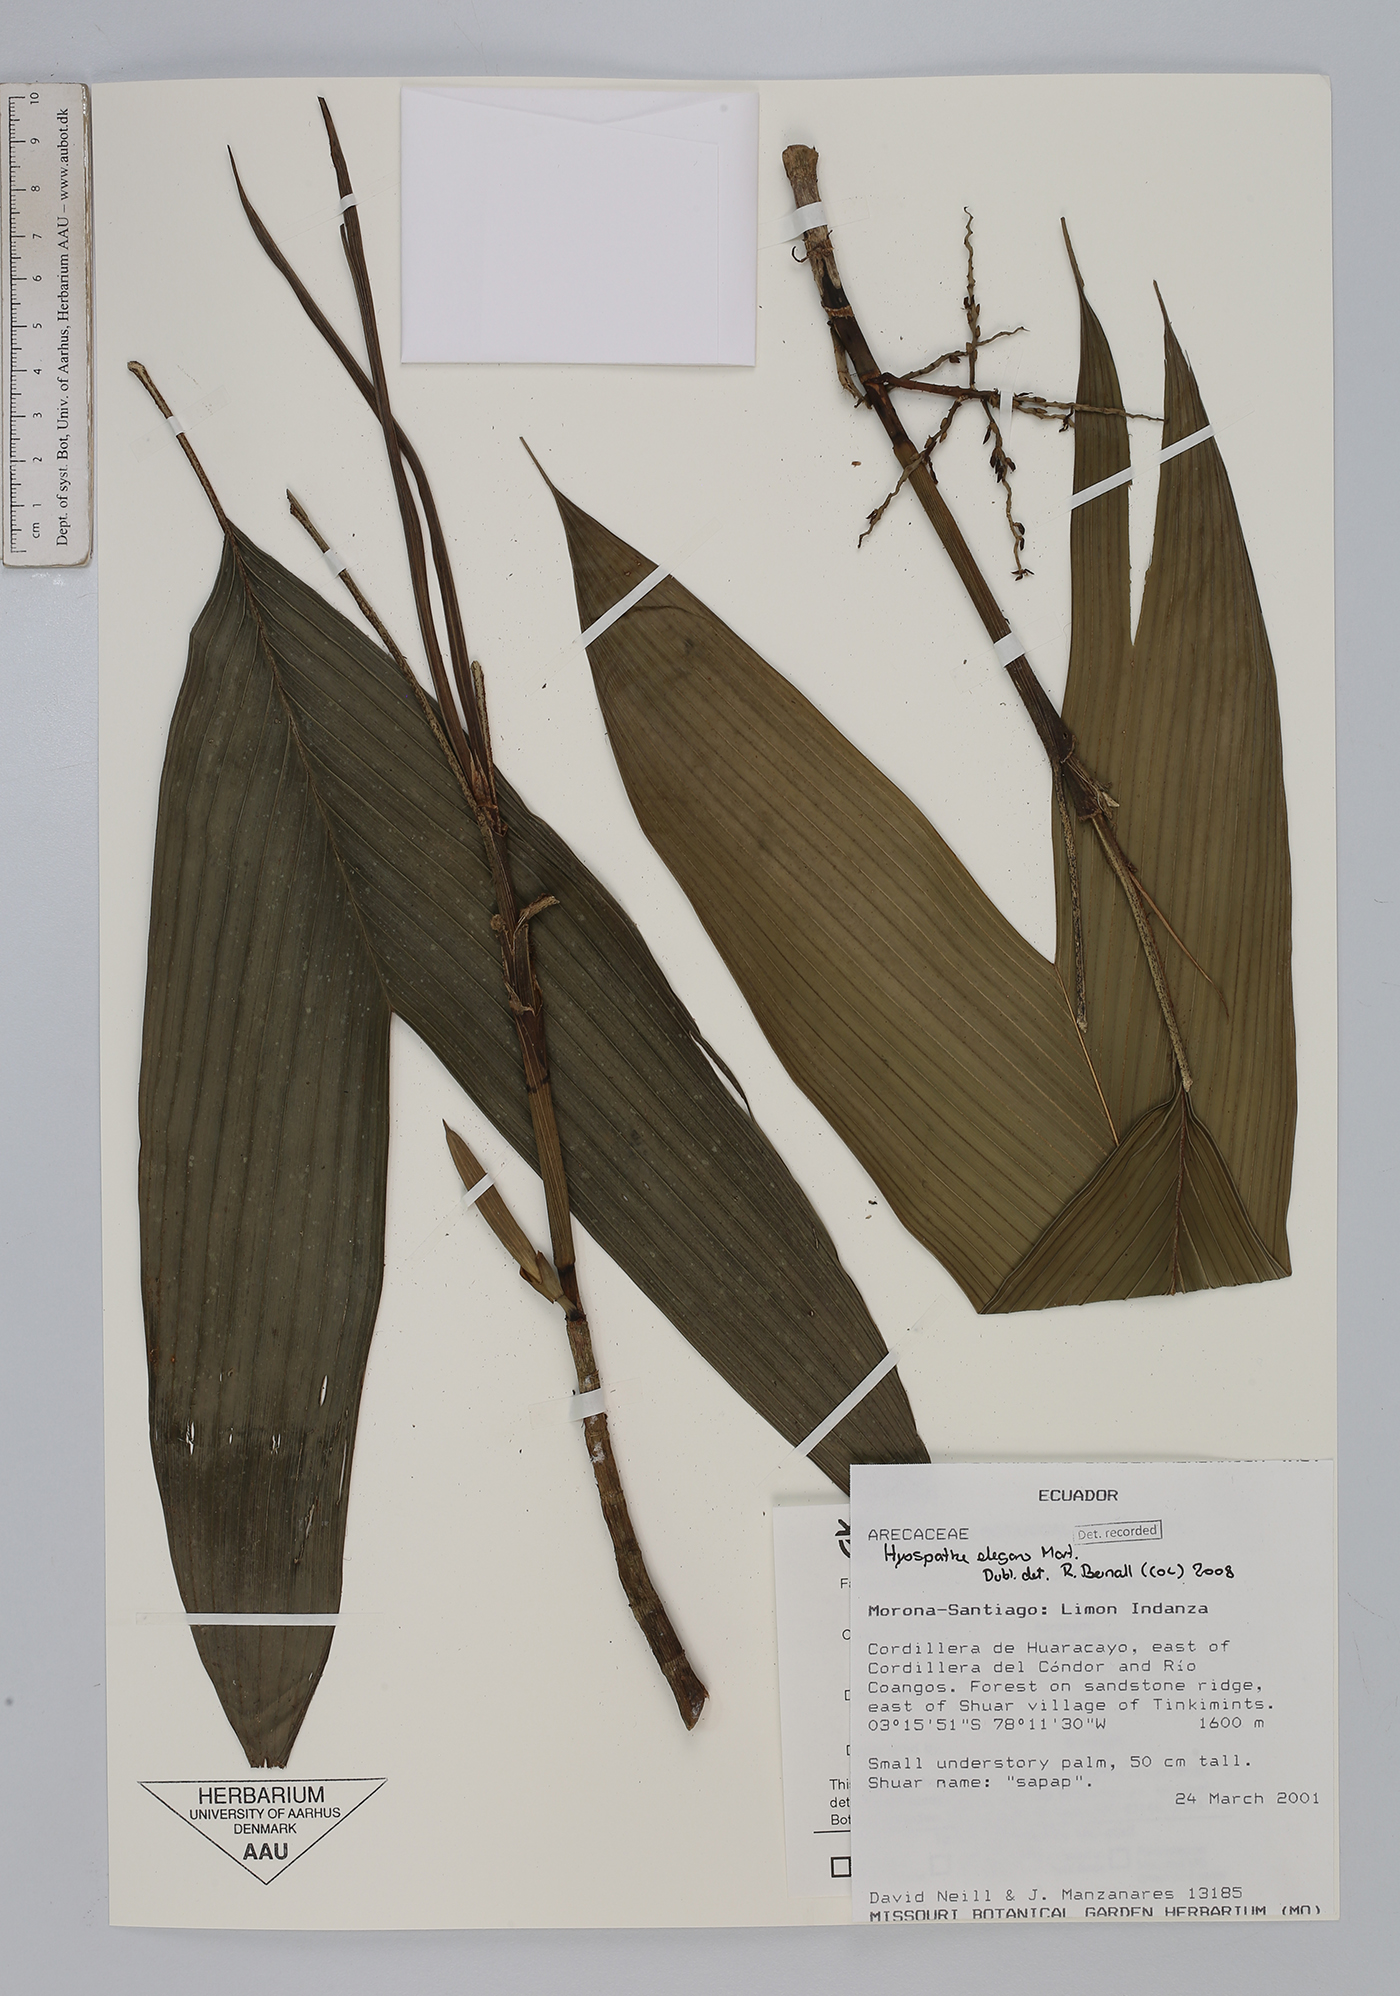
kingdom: Plantae
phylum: Tracheophyta
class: Liliopsida
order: Arecales
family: Arecaceae
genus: Hyospathe
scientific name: Hyospathe elegans
